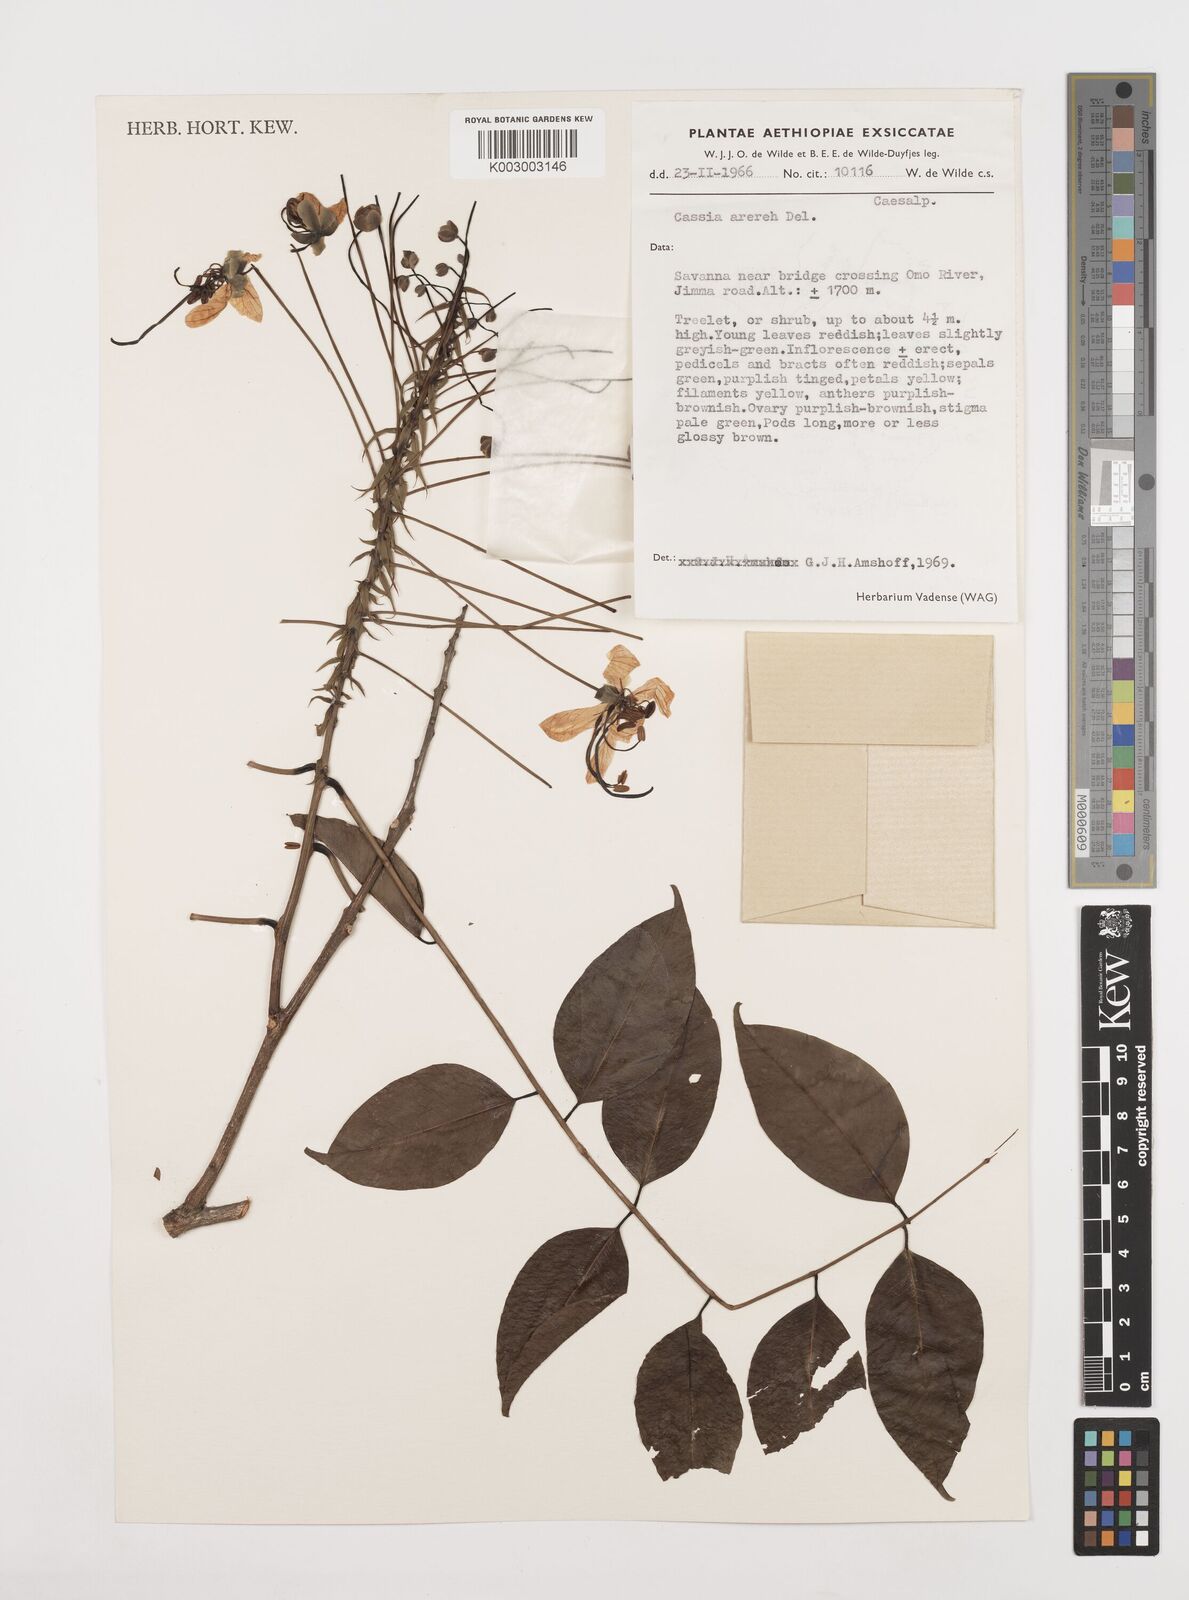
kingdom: Plantae
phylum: Tracheophyta
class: Magnoliopsida
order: Fabales
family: Fabaceae
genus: Cassia
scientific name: Cassia arereh
